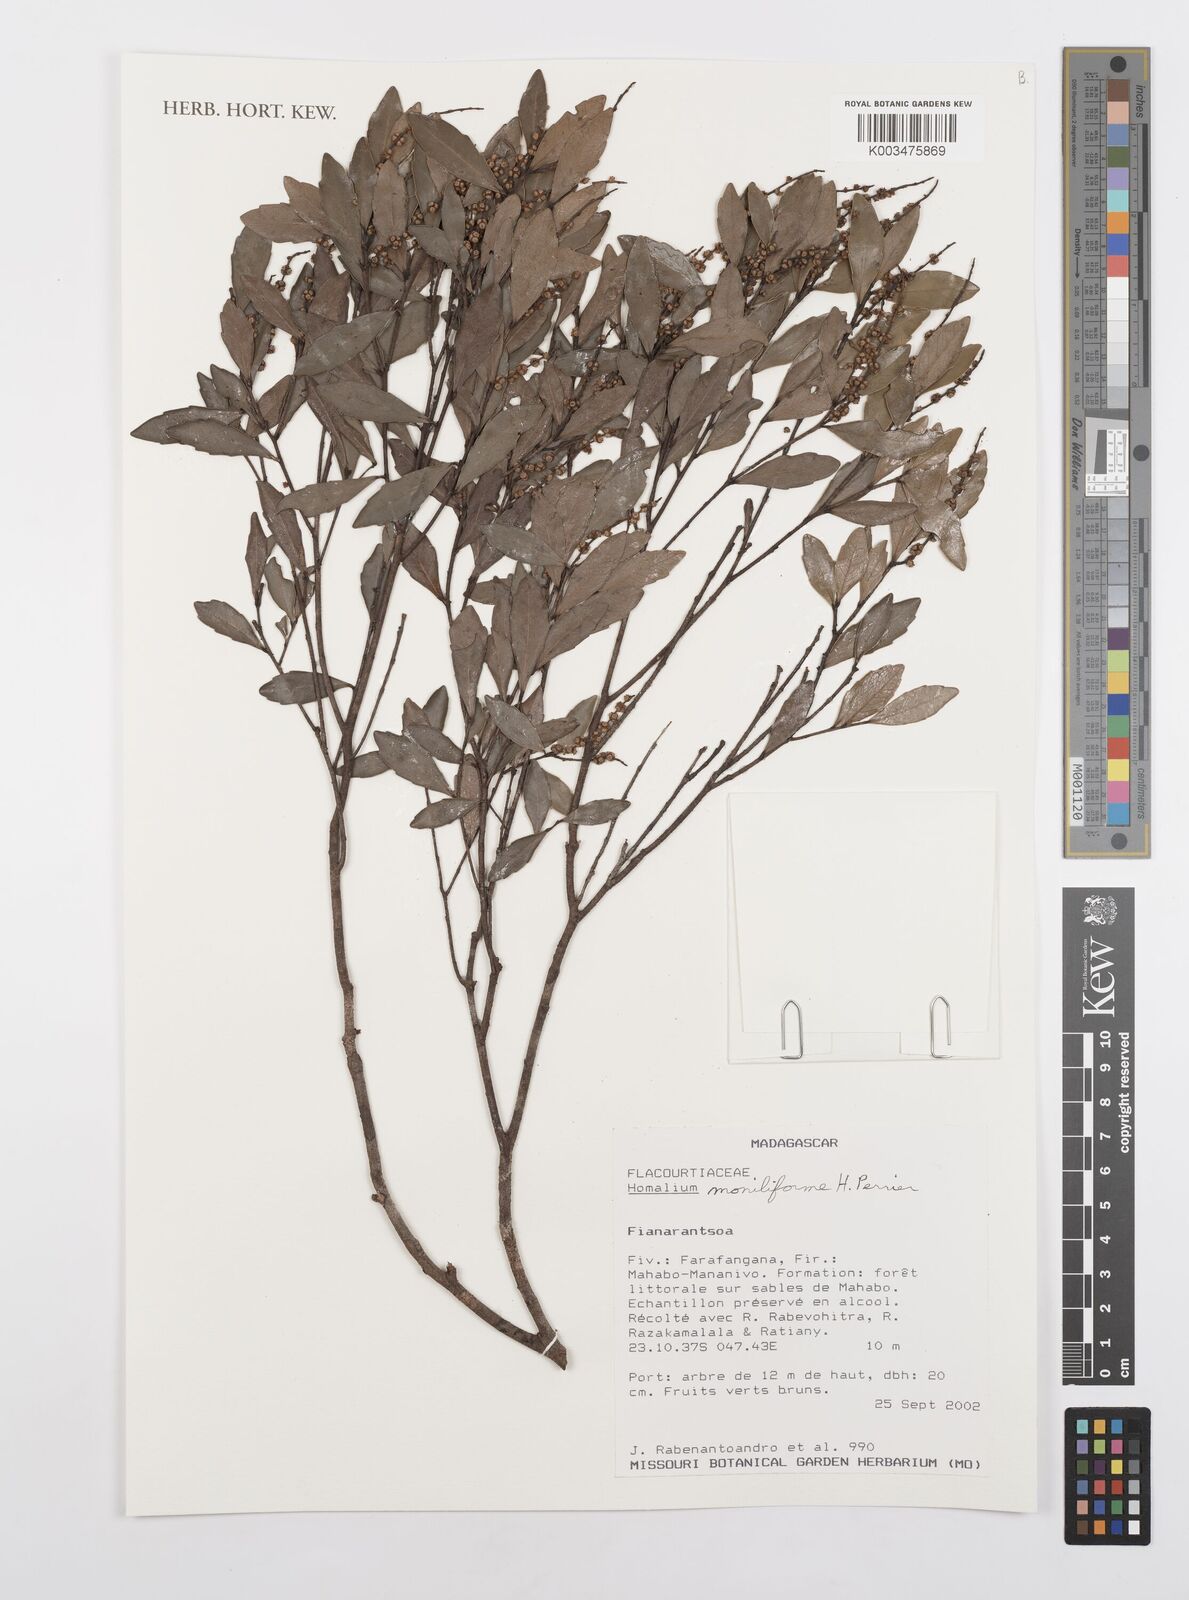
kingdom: Plantae
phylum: Tracheophyta
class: Magnoliopsida
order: Malpighiales
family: Salicaceae
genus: Homalium
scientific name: Homalium moniliforme
